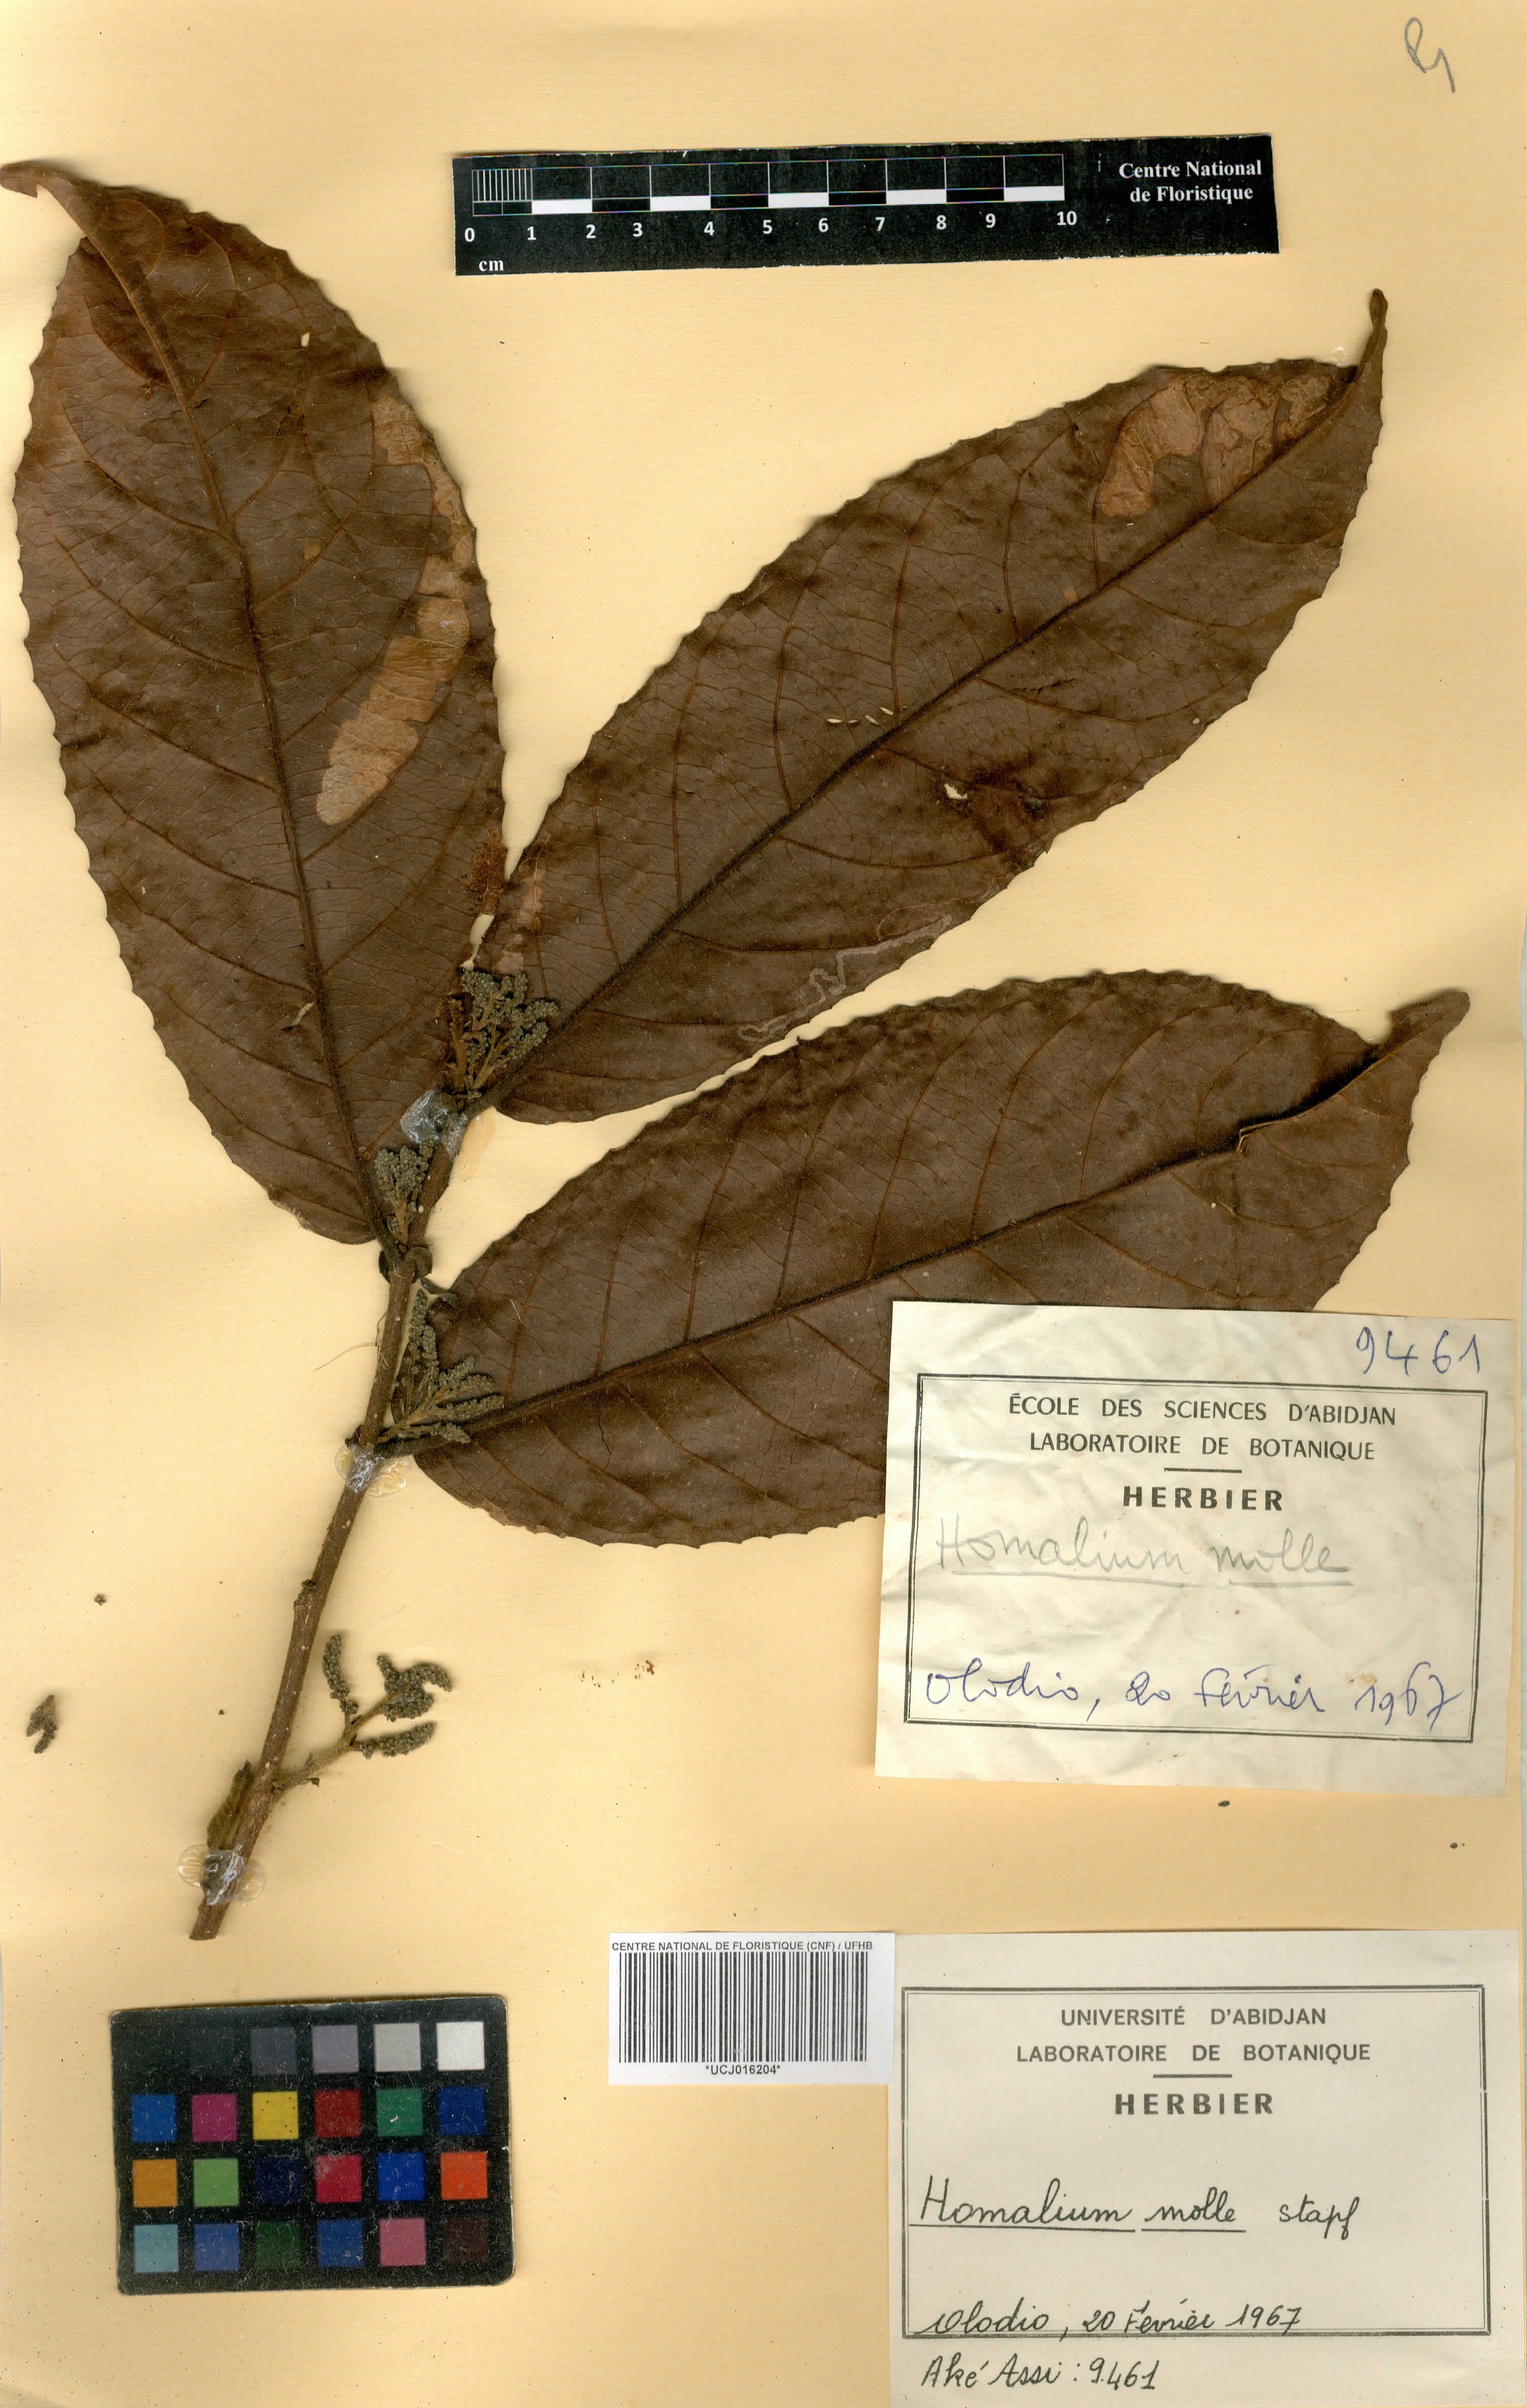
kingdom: Plantae
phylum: Tracheophyta
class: Magnoliopsida
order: Malpighiales
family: Salicaceae
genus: Homalium
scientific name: Homalium africanum
